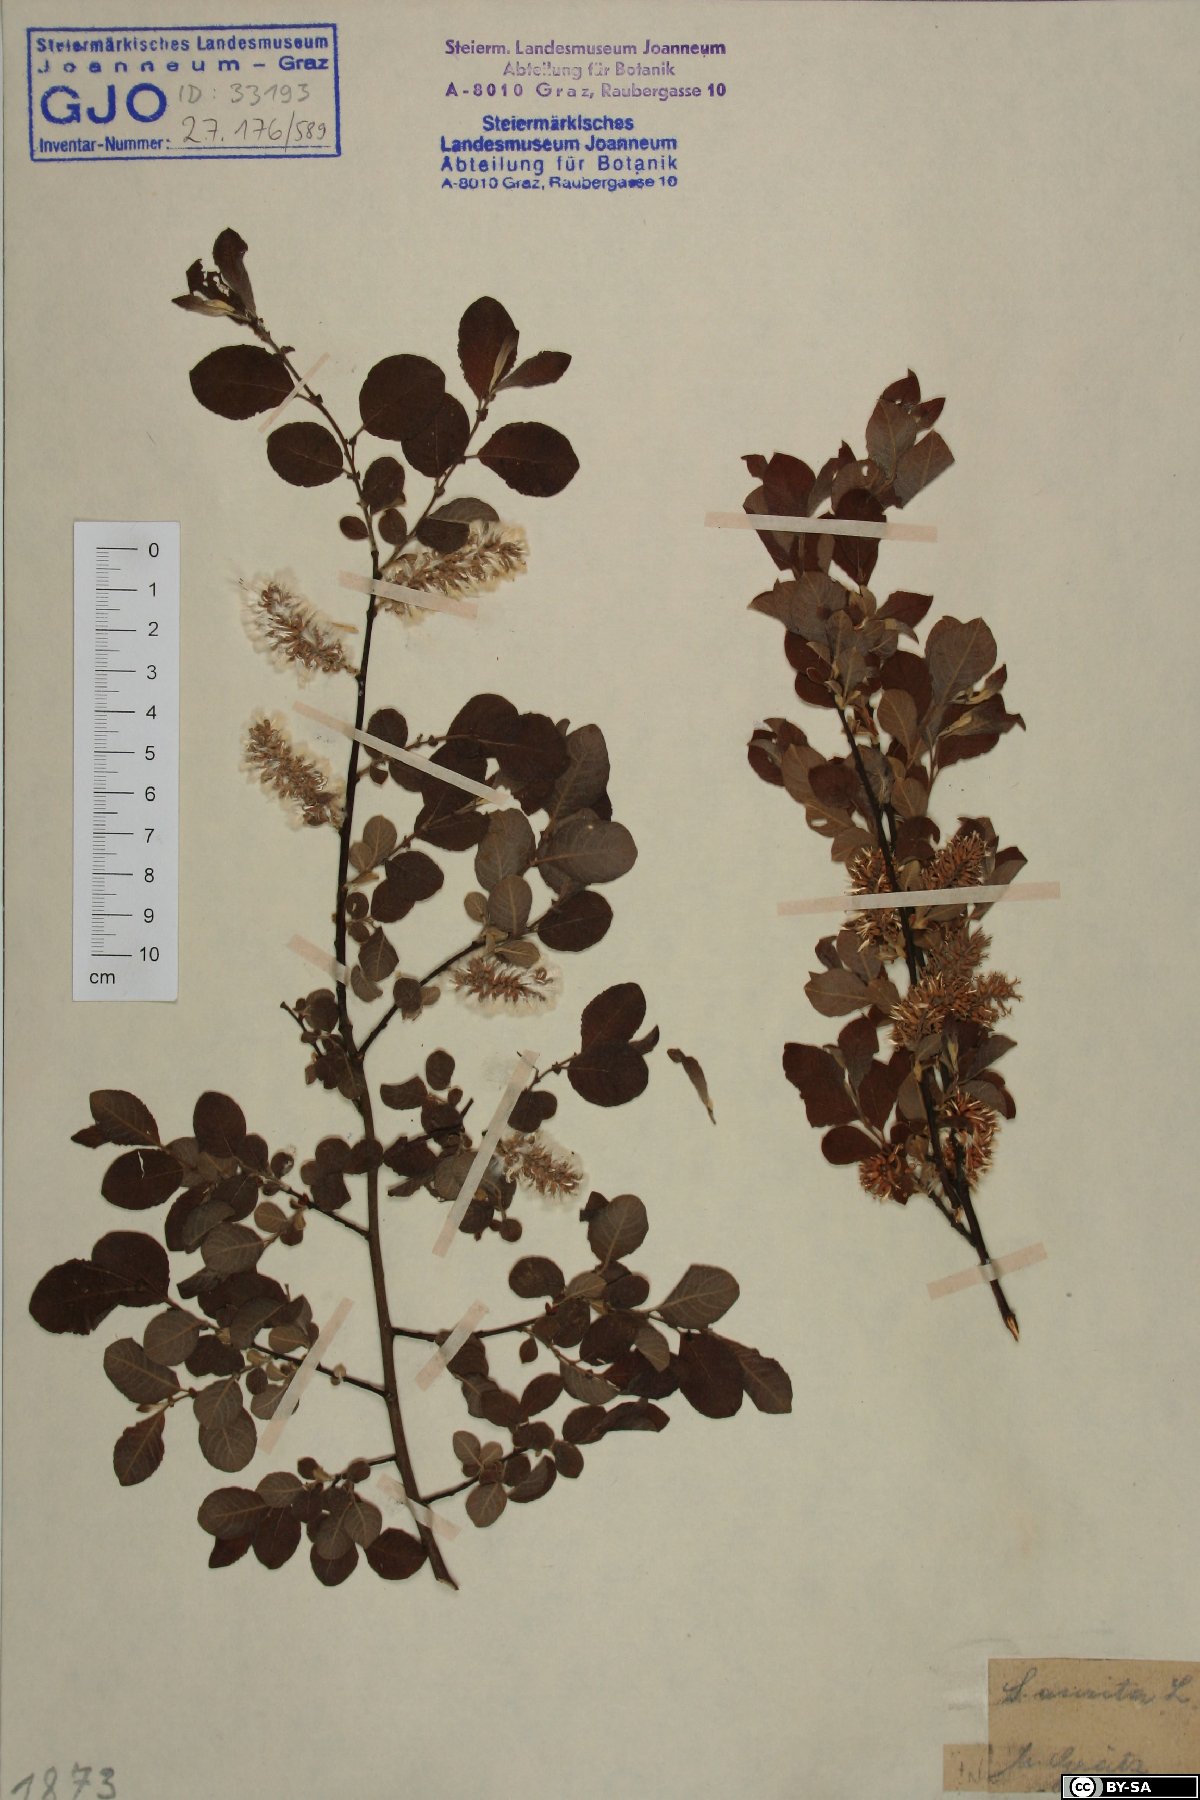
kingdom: Plantae
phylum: Tracheophyta
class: Magnoliopsida
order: Malpighiales
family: Salicaceae
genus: Salix
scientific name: Salix aurita
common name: Eared willow
